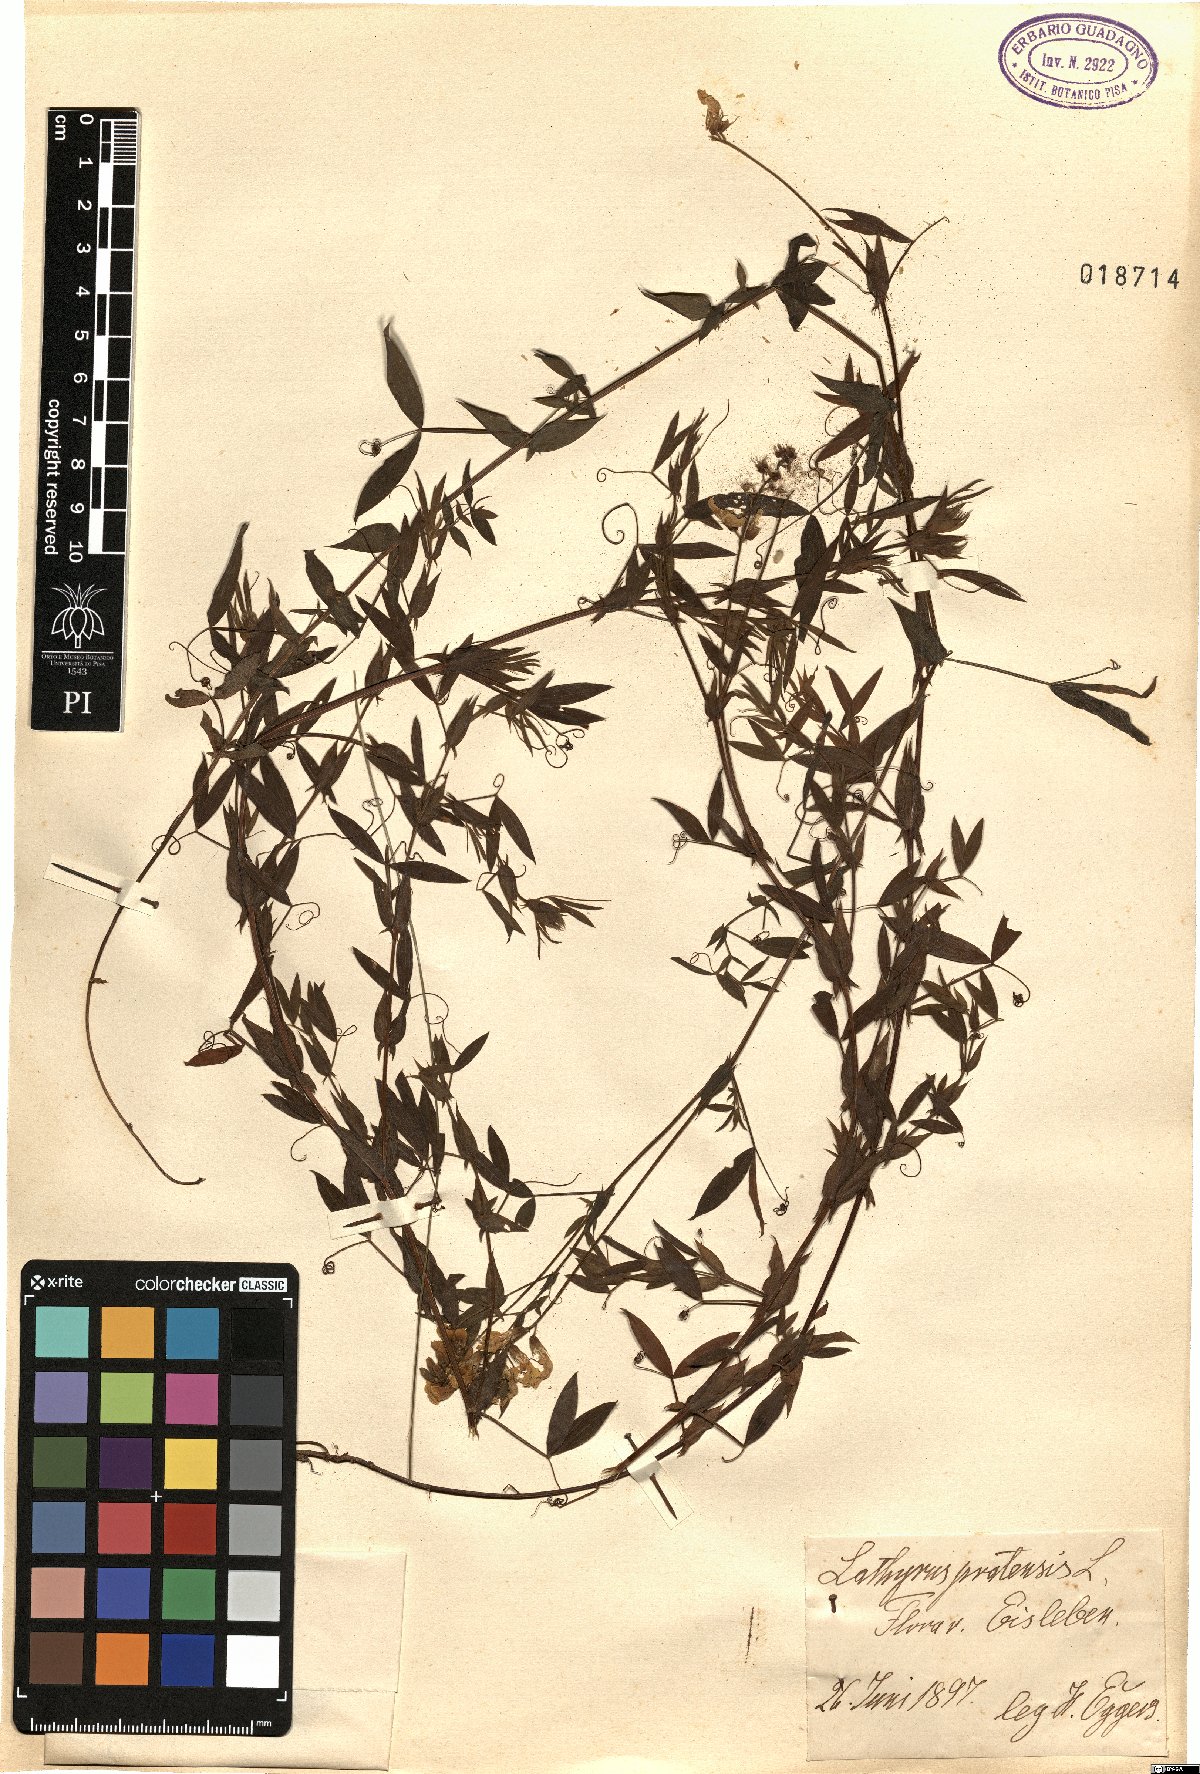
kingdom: Plantae
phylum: Tracheophyta
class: Magnoliopsida
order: Fabales
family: Fabaceae
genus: Lathyrus
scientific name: Lathyrus pratensis
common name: Meadow vetchling
